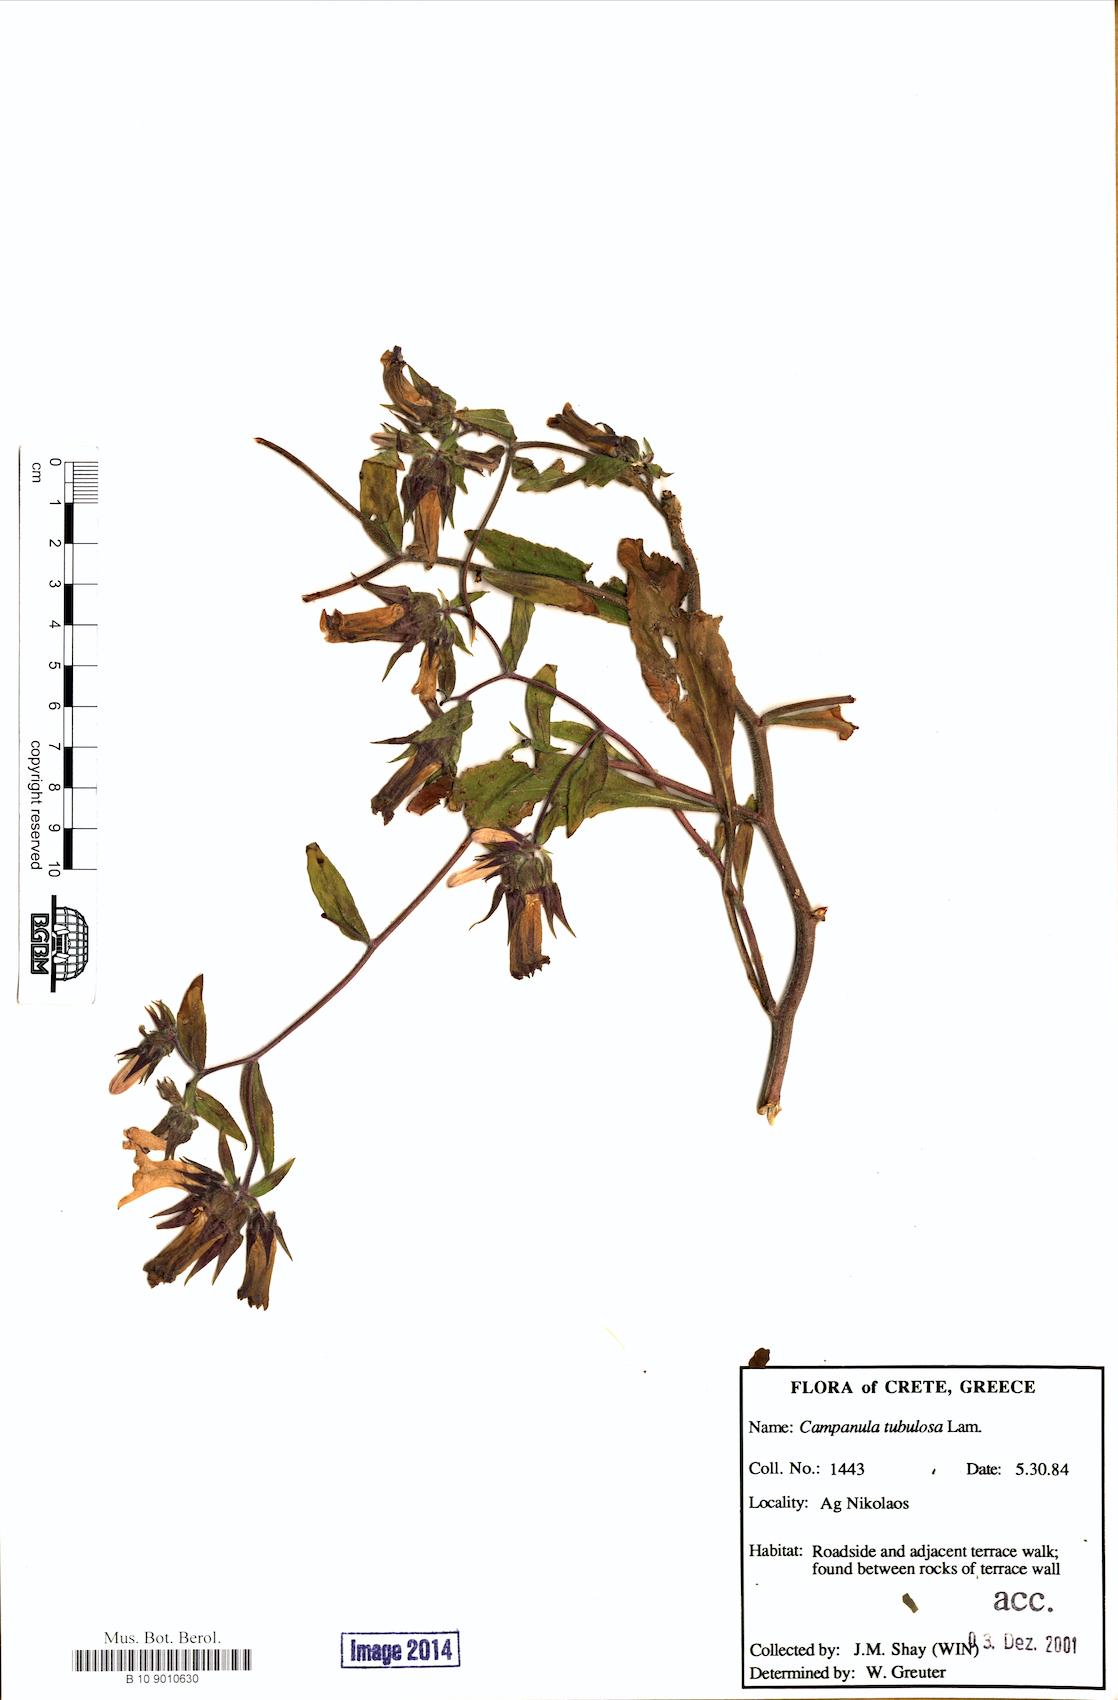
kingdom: Plantae
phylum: Tracheophyta
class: Magnoliopsida
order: Asterales
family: Campanulaceae
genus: Campanula
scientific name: Campanula tubulosa
